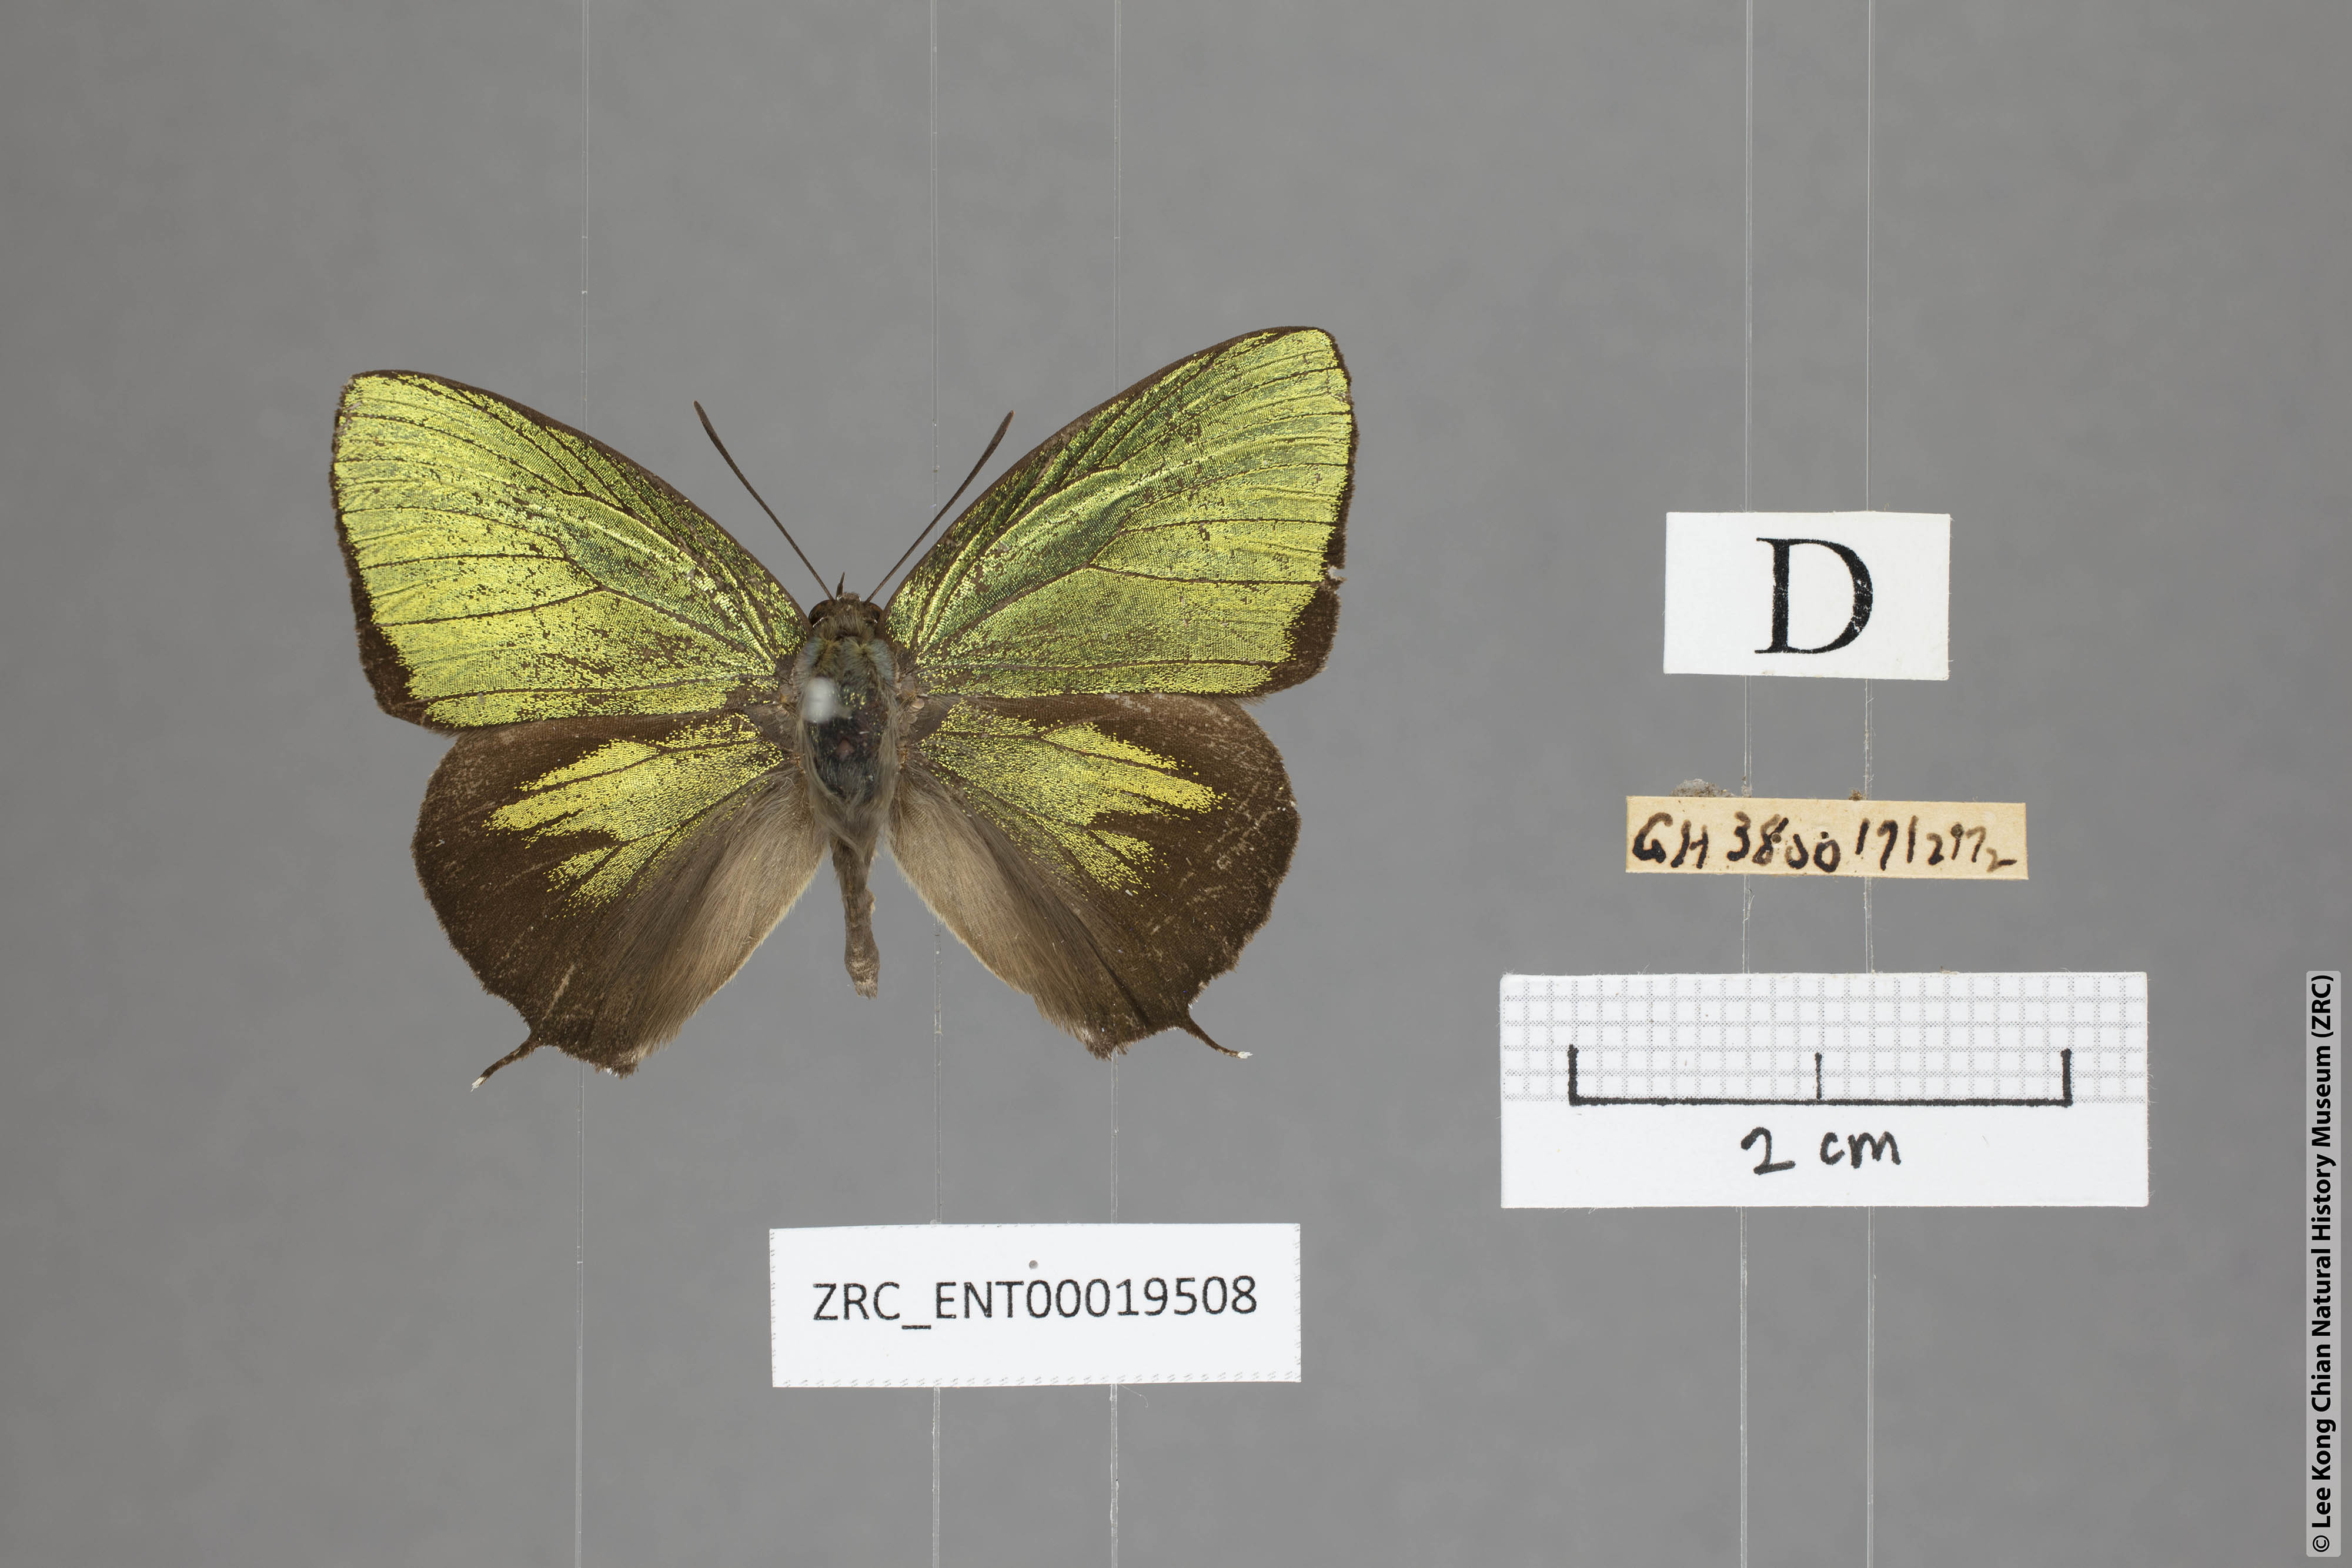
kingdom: Animalia
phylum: Arthropoda
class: Insecta
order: Lepidoptera
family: Lycaenidae
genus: Arhopala
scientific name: Arhopala hellenore
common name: Doherty's green oakblue
